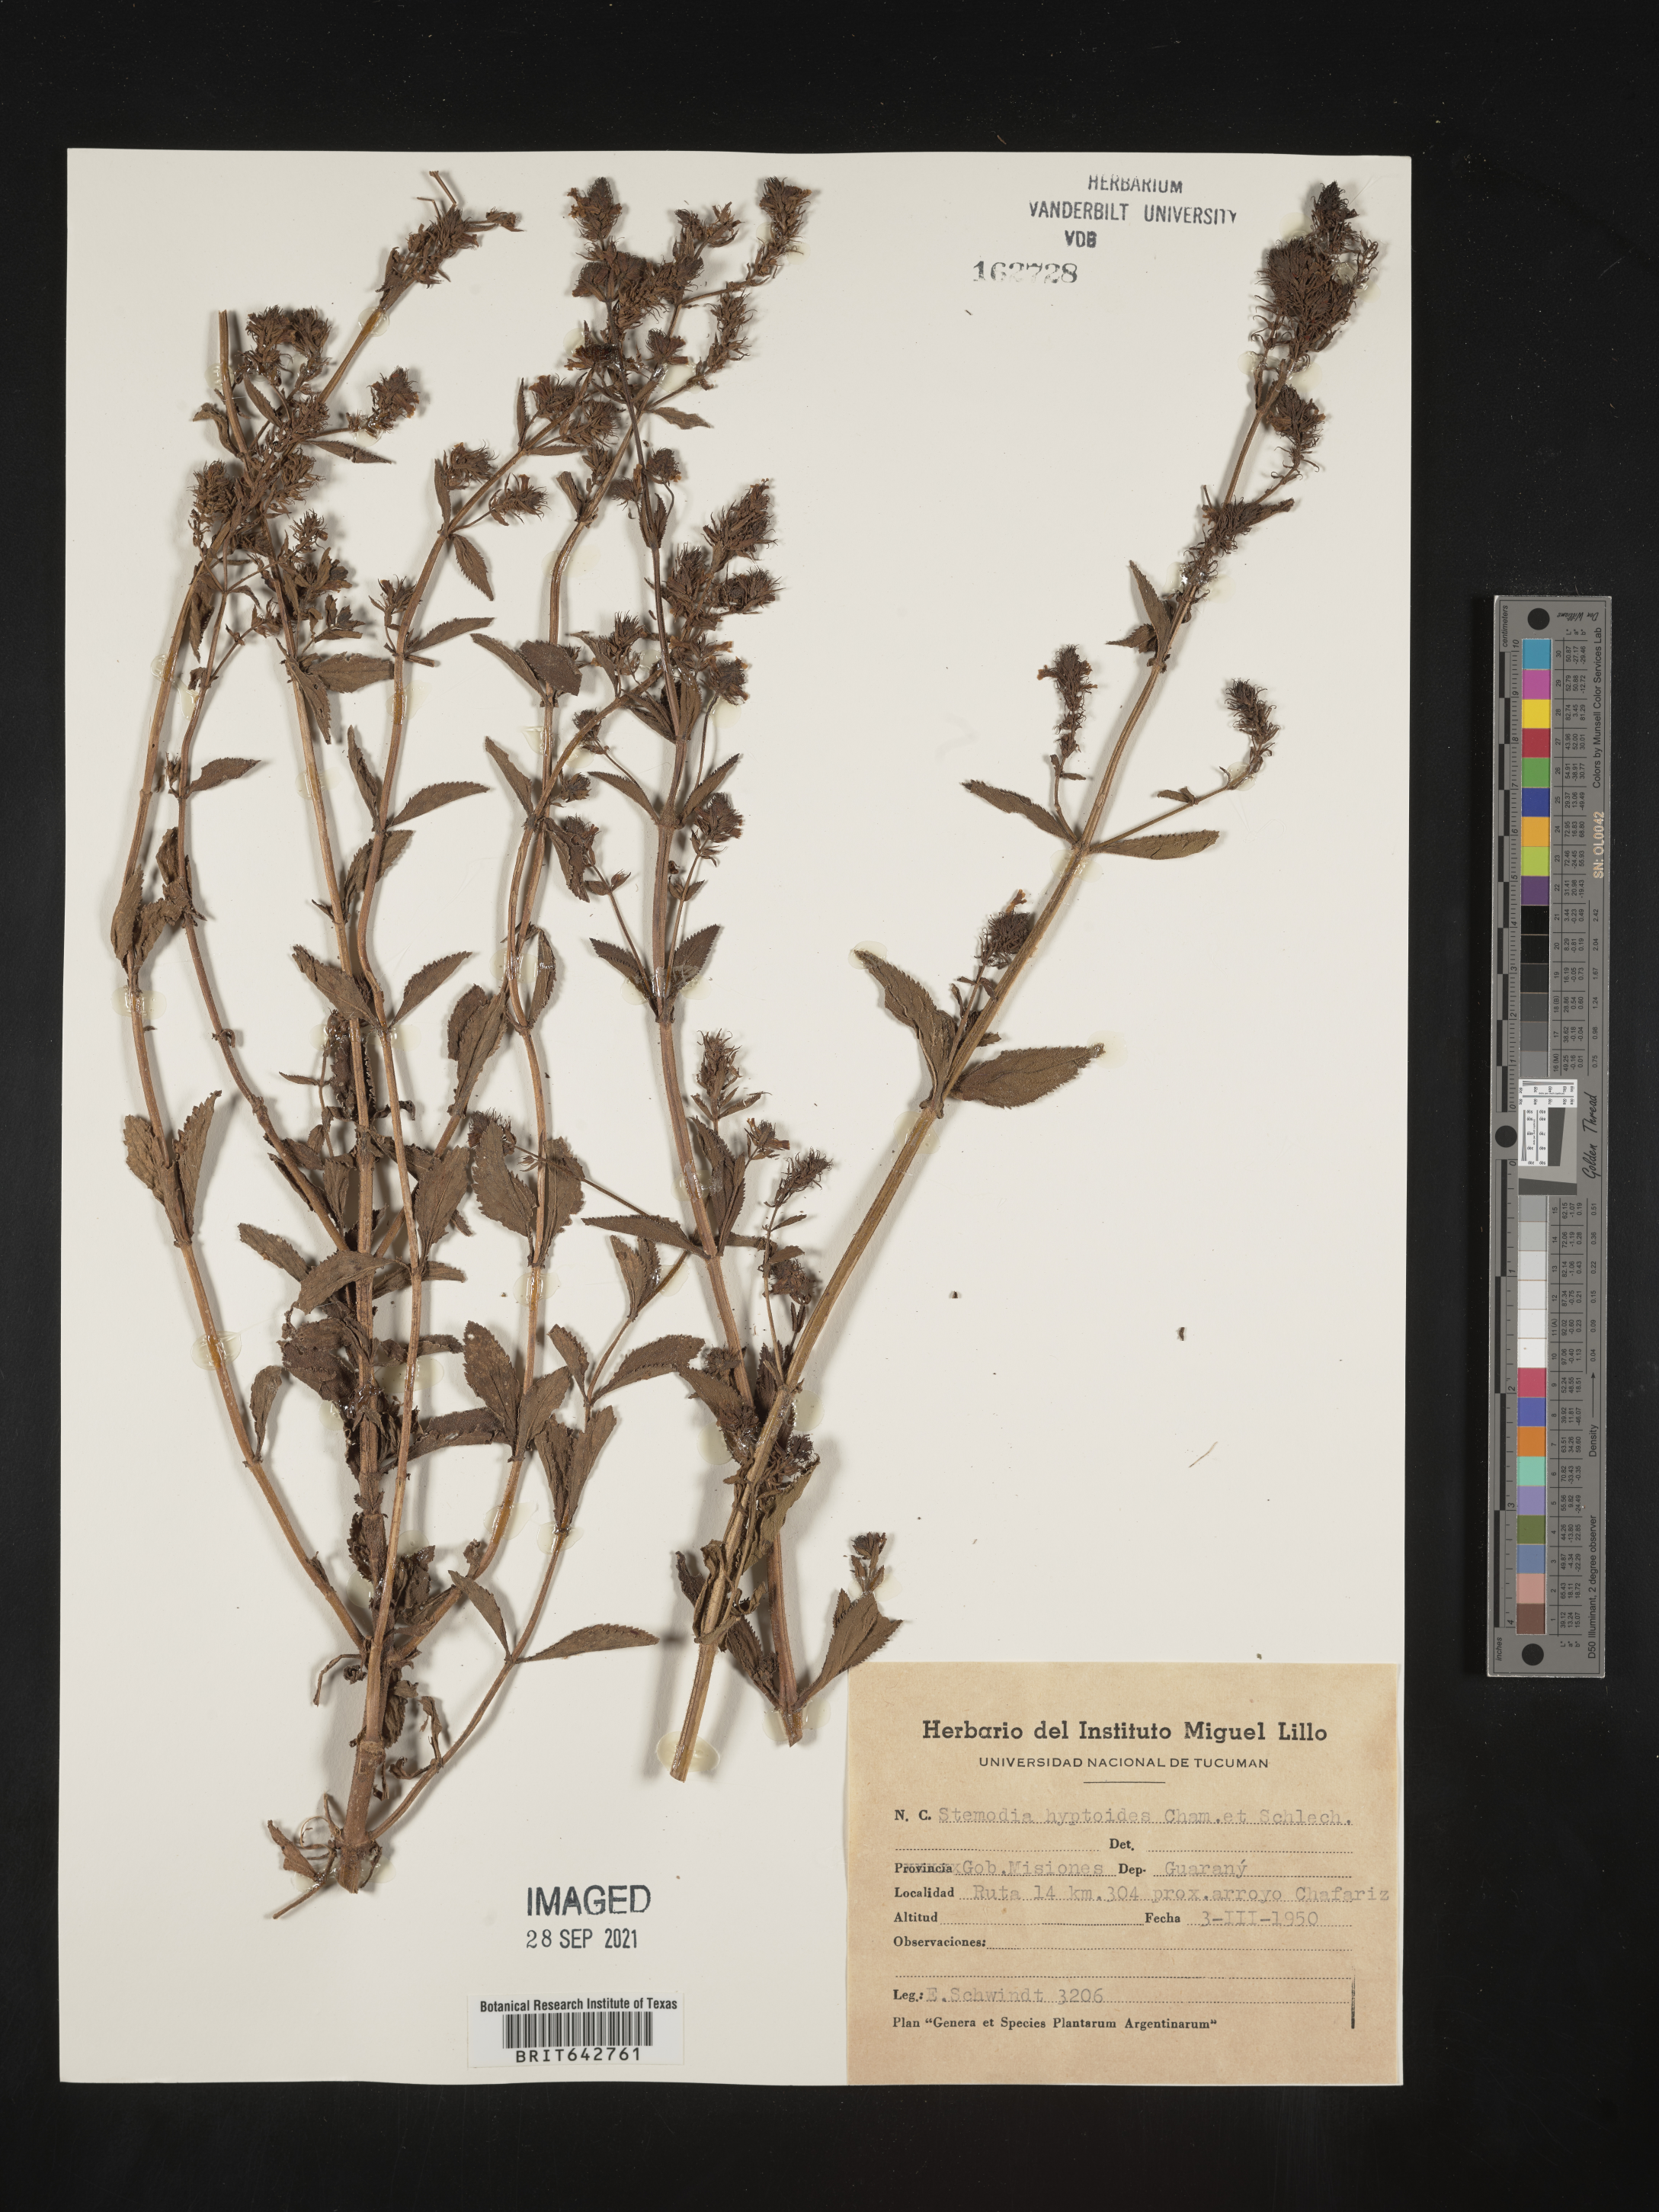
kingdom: Plantae
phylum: Tracheophyta
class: Magnoliopsida
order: Lamiales
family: Plantaginaceae
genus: Stemodia
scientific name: Stemodia
